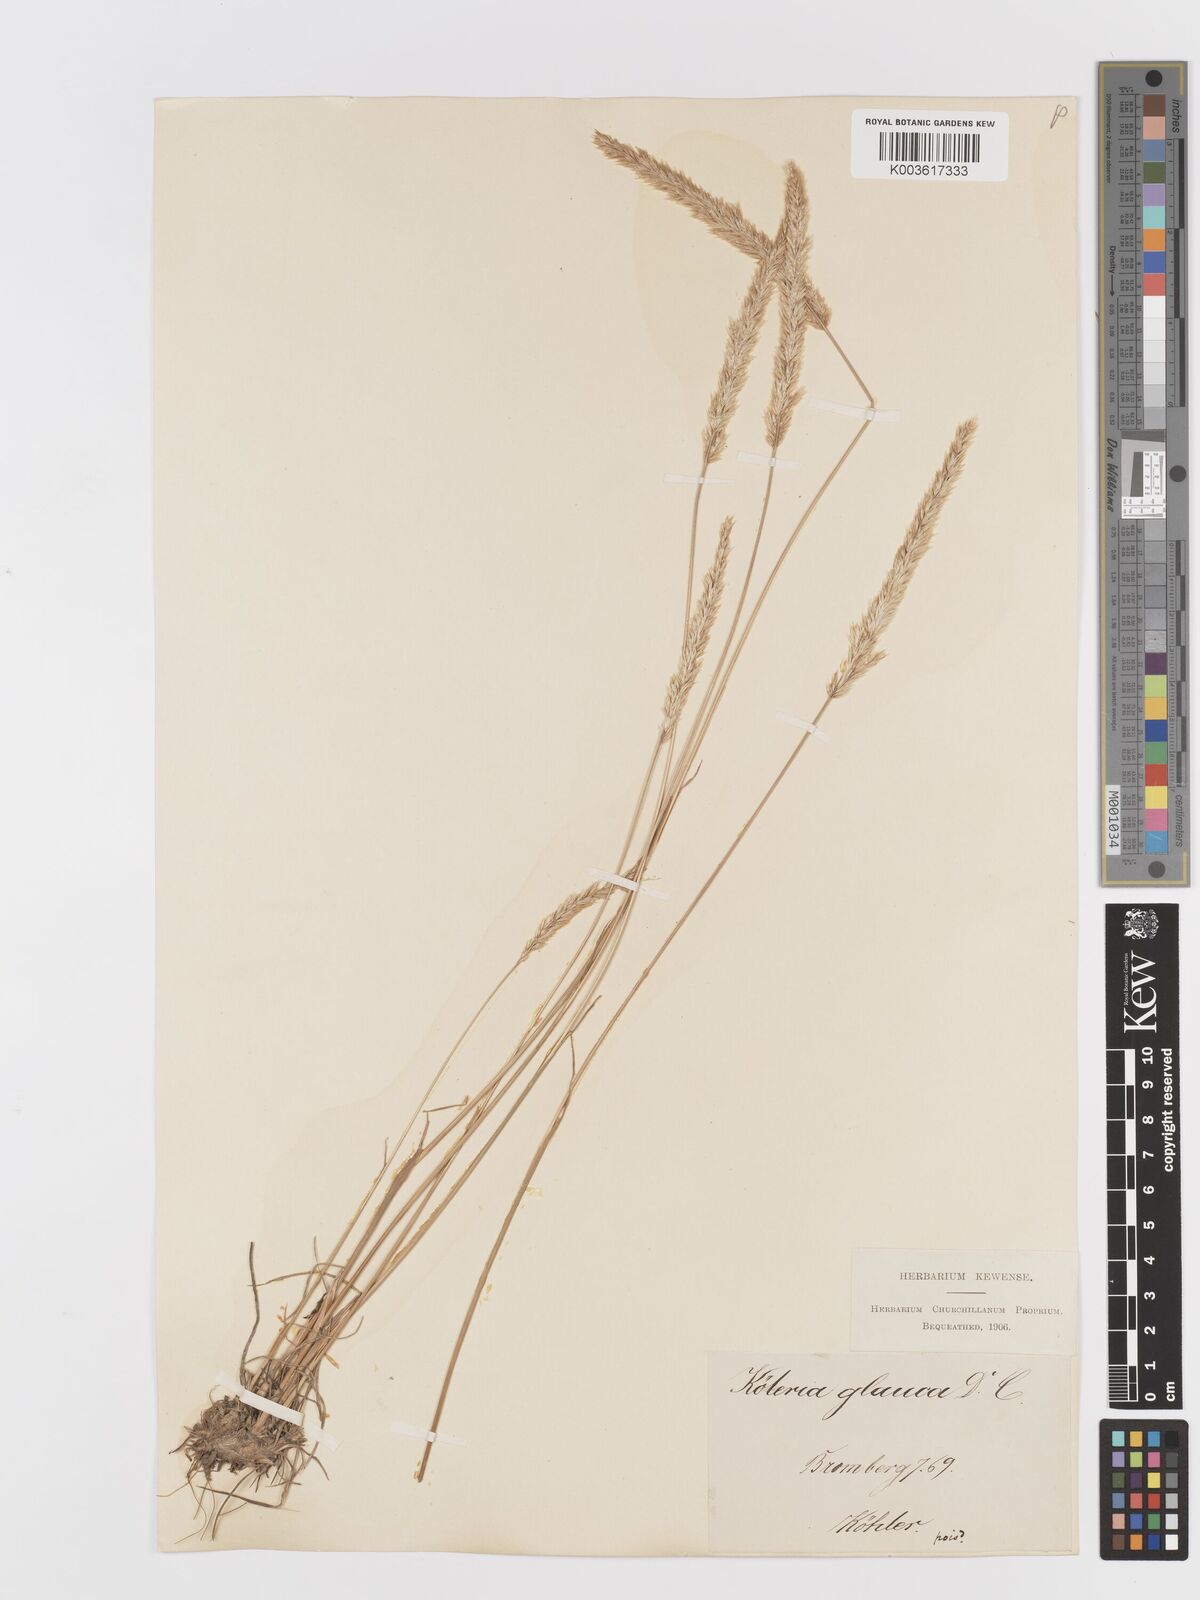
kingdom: Plantae
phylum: Tracheophyta
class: Liliopsida
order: Poales
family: Poaceae
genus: Koeleria
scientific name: Koeleria glauca
